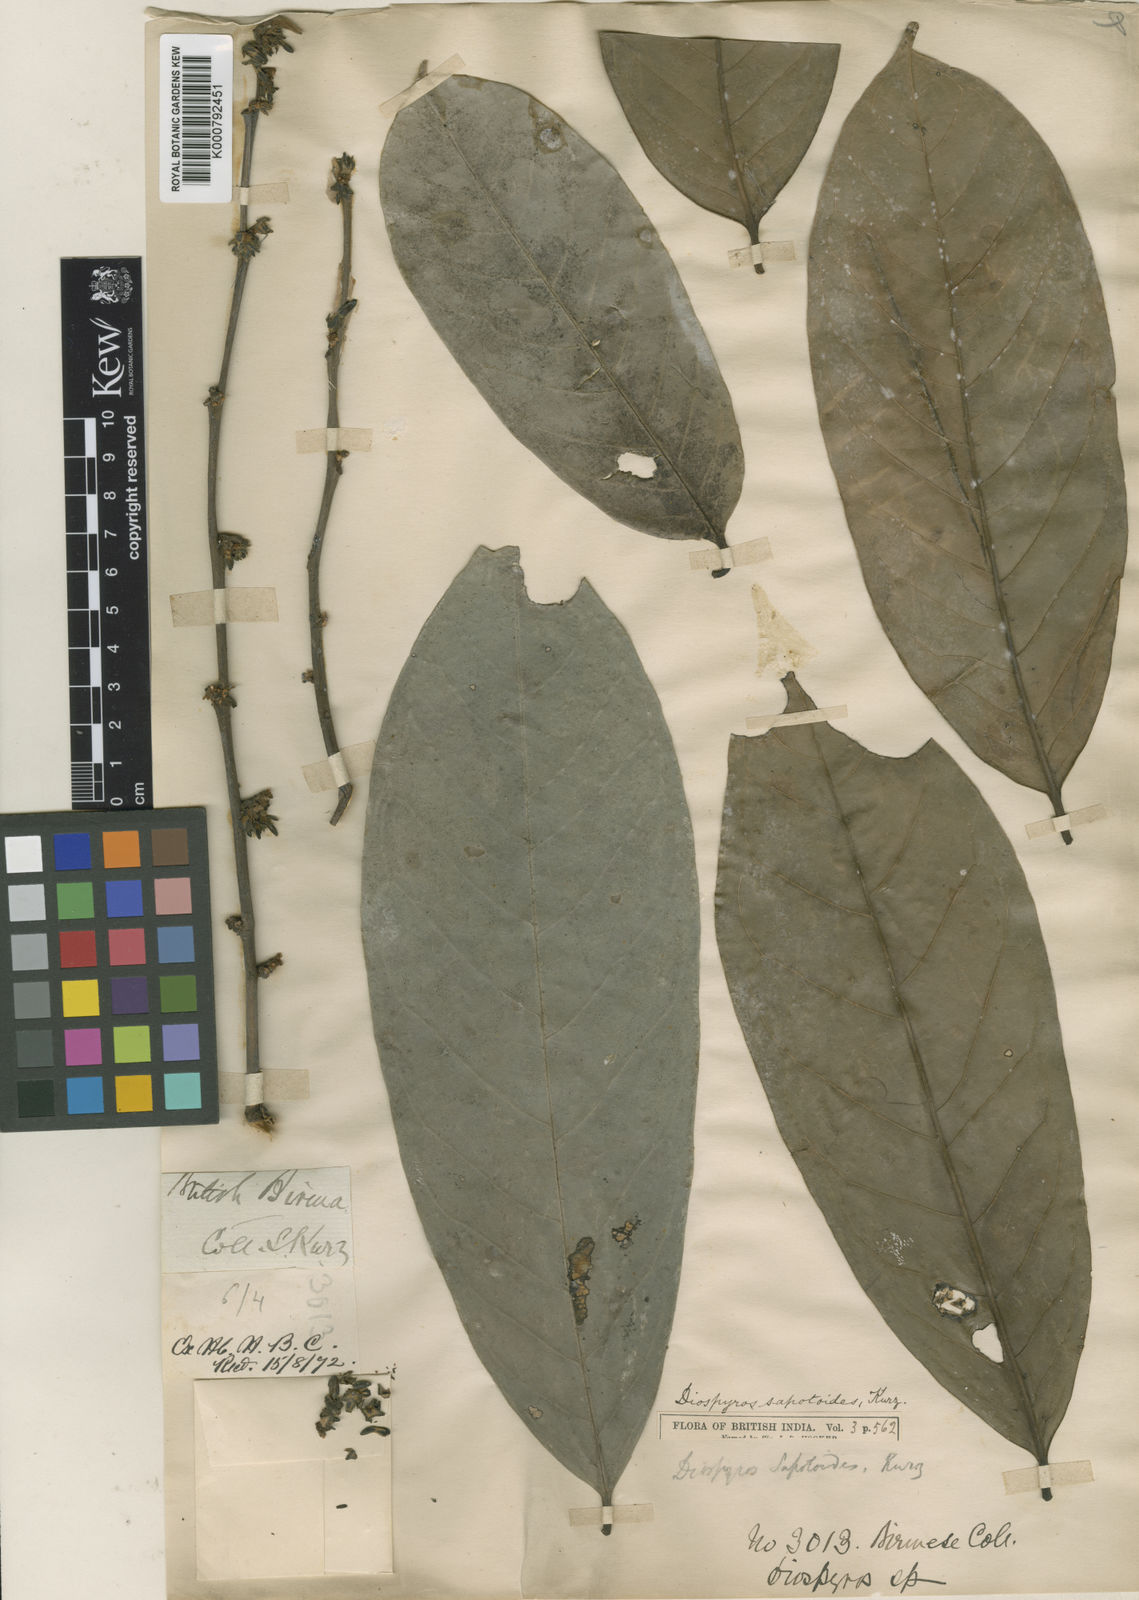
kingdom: Plantae
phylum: Tracheophyta
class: Magnoliopsida
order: Ericales
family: Ebenaceae
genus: Diospyros
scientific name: Diospyros oblonga
